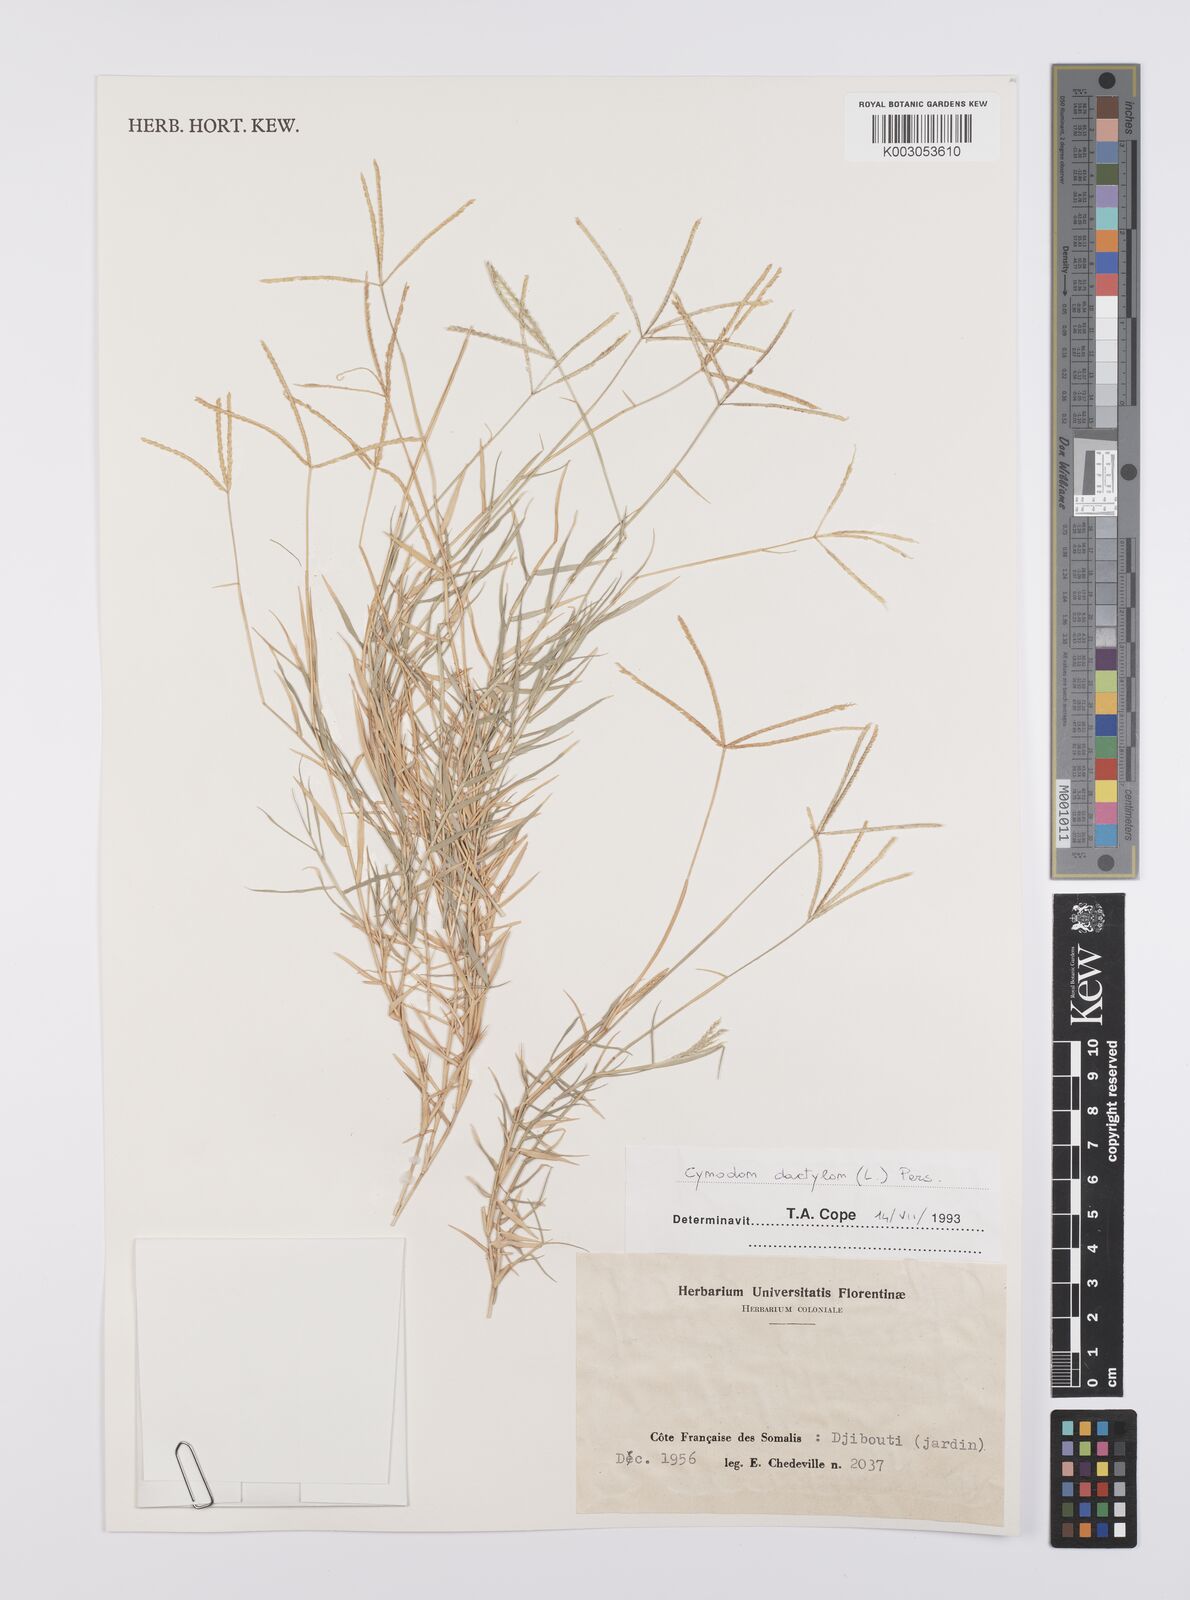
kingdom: Plantae
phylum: Tracheophyta
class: Liliopsida
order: Poales
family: Poaceae
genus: Cynodon
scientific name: Cynodon dactylon
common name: Bermuda grass
